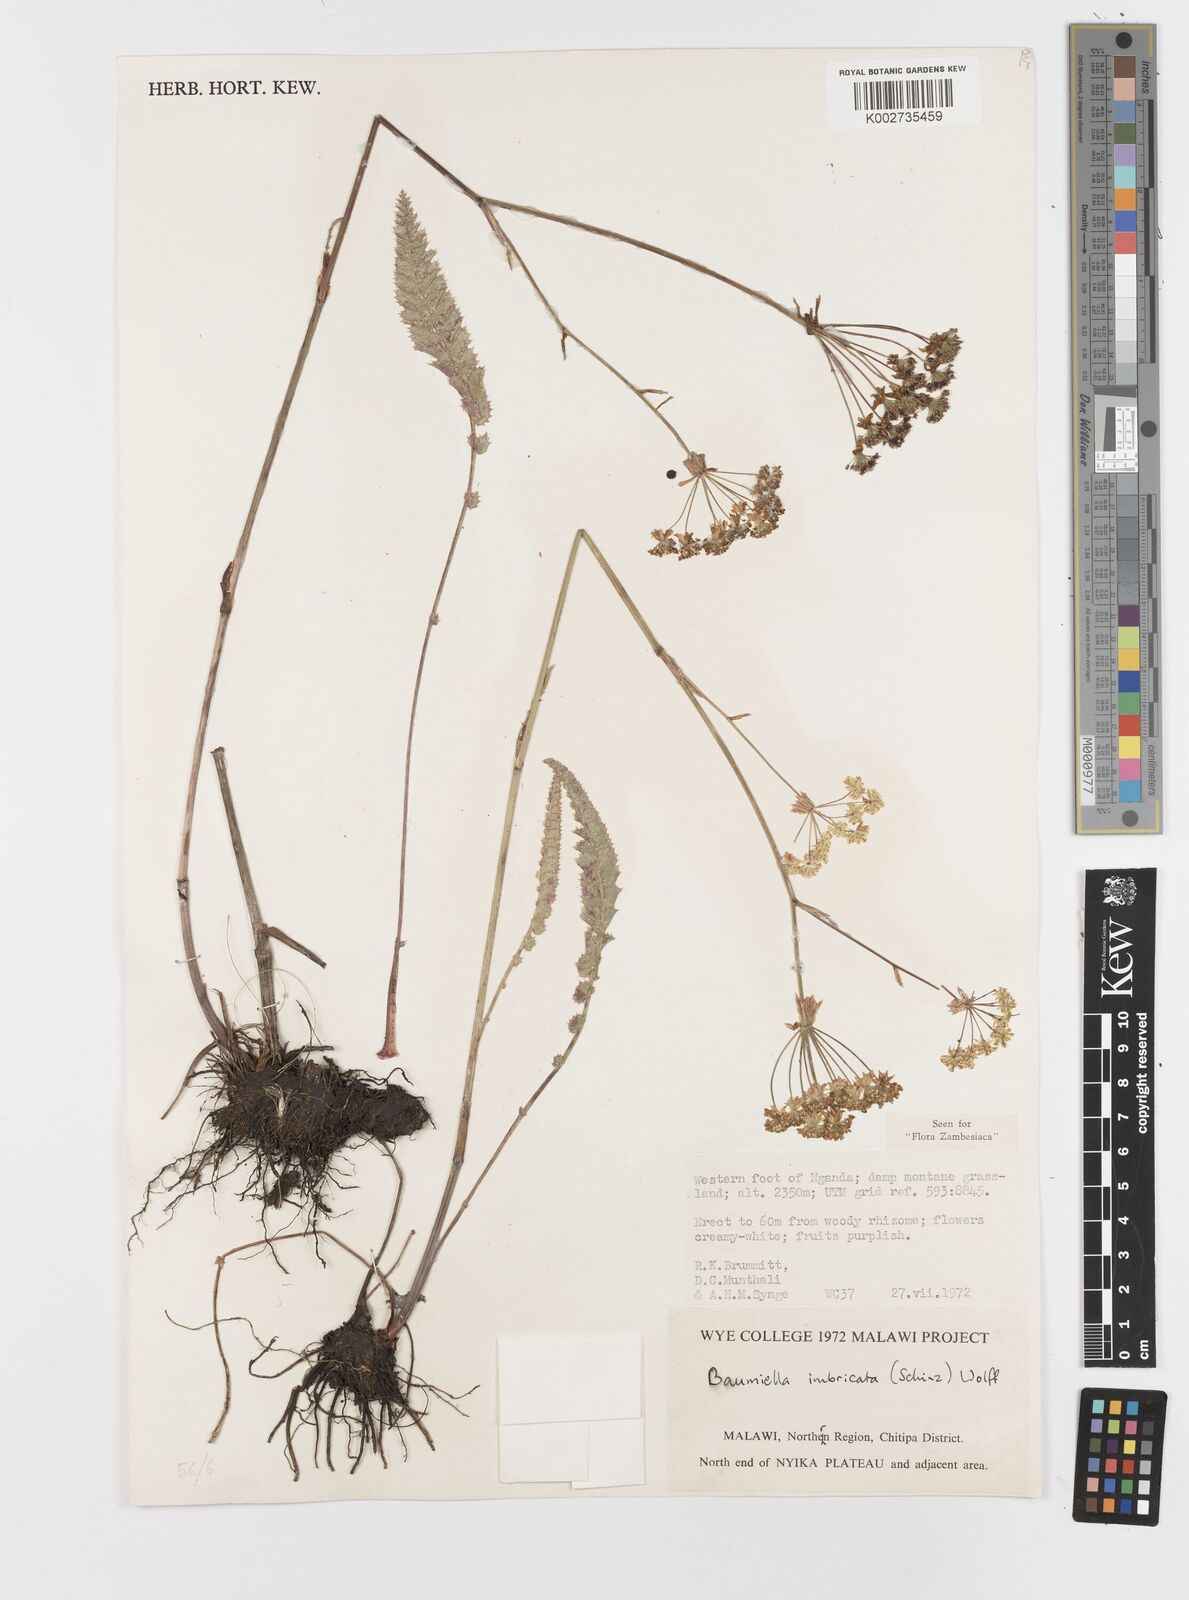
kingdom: Plantae
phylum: Tracheophyta
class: Magnoliopsida
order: Apiales
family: Apiaceae
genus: Berula
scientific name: Berula imbricata
